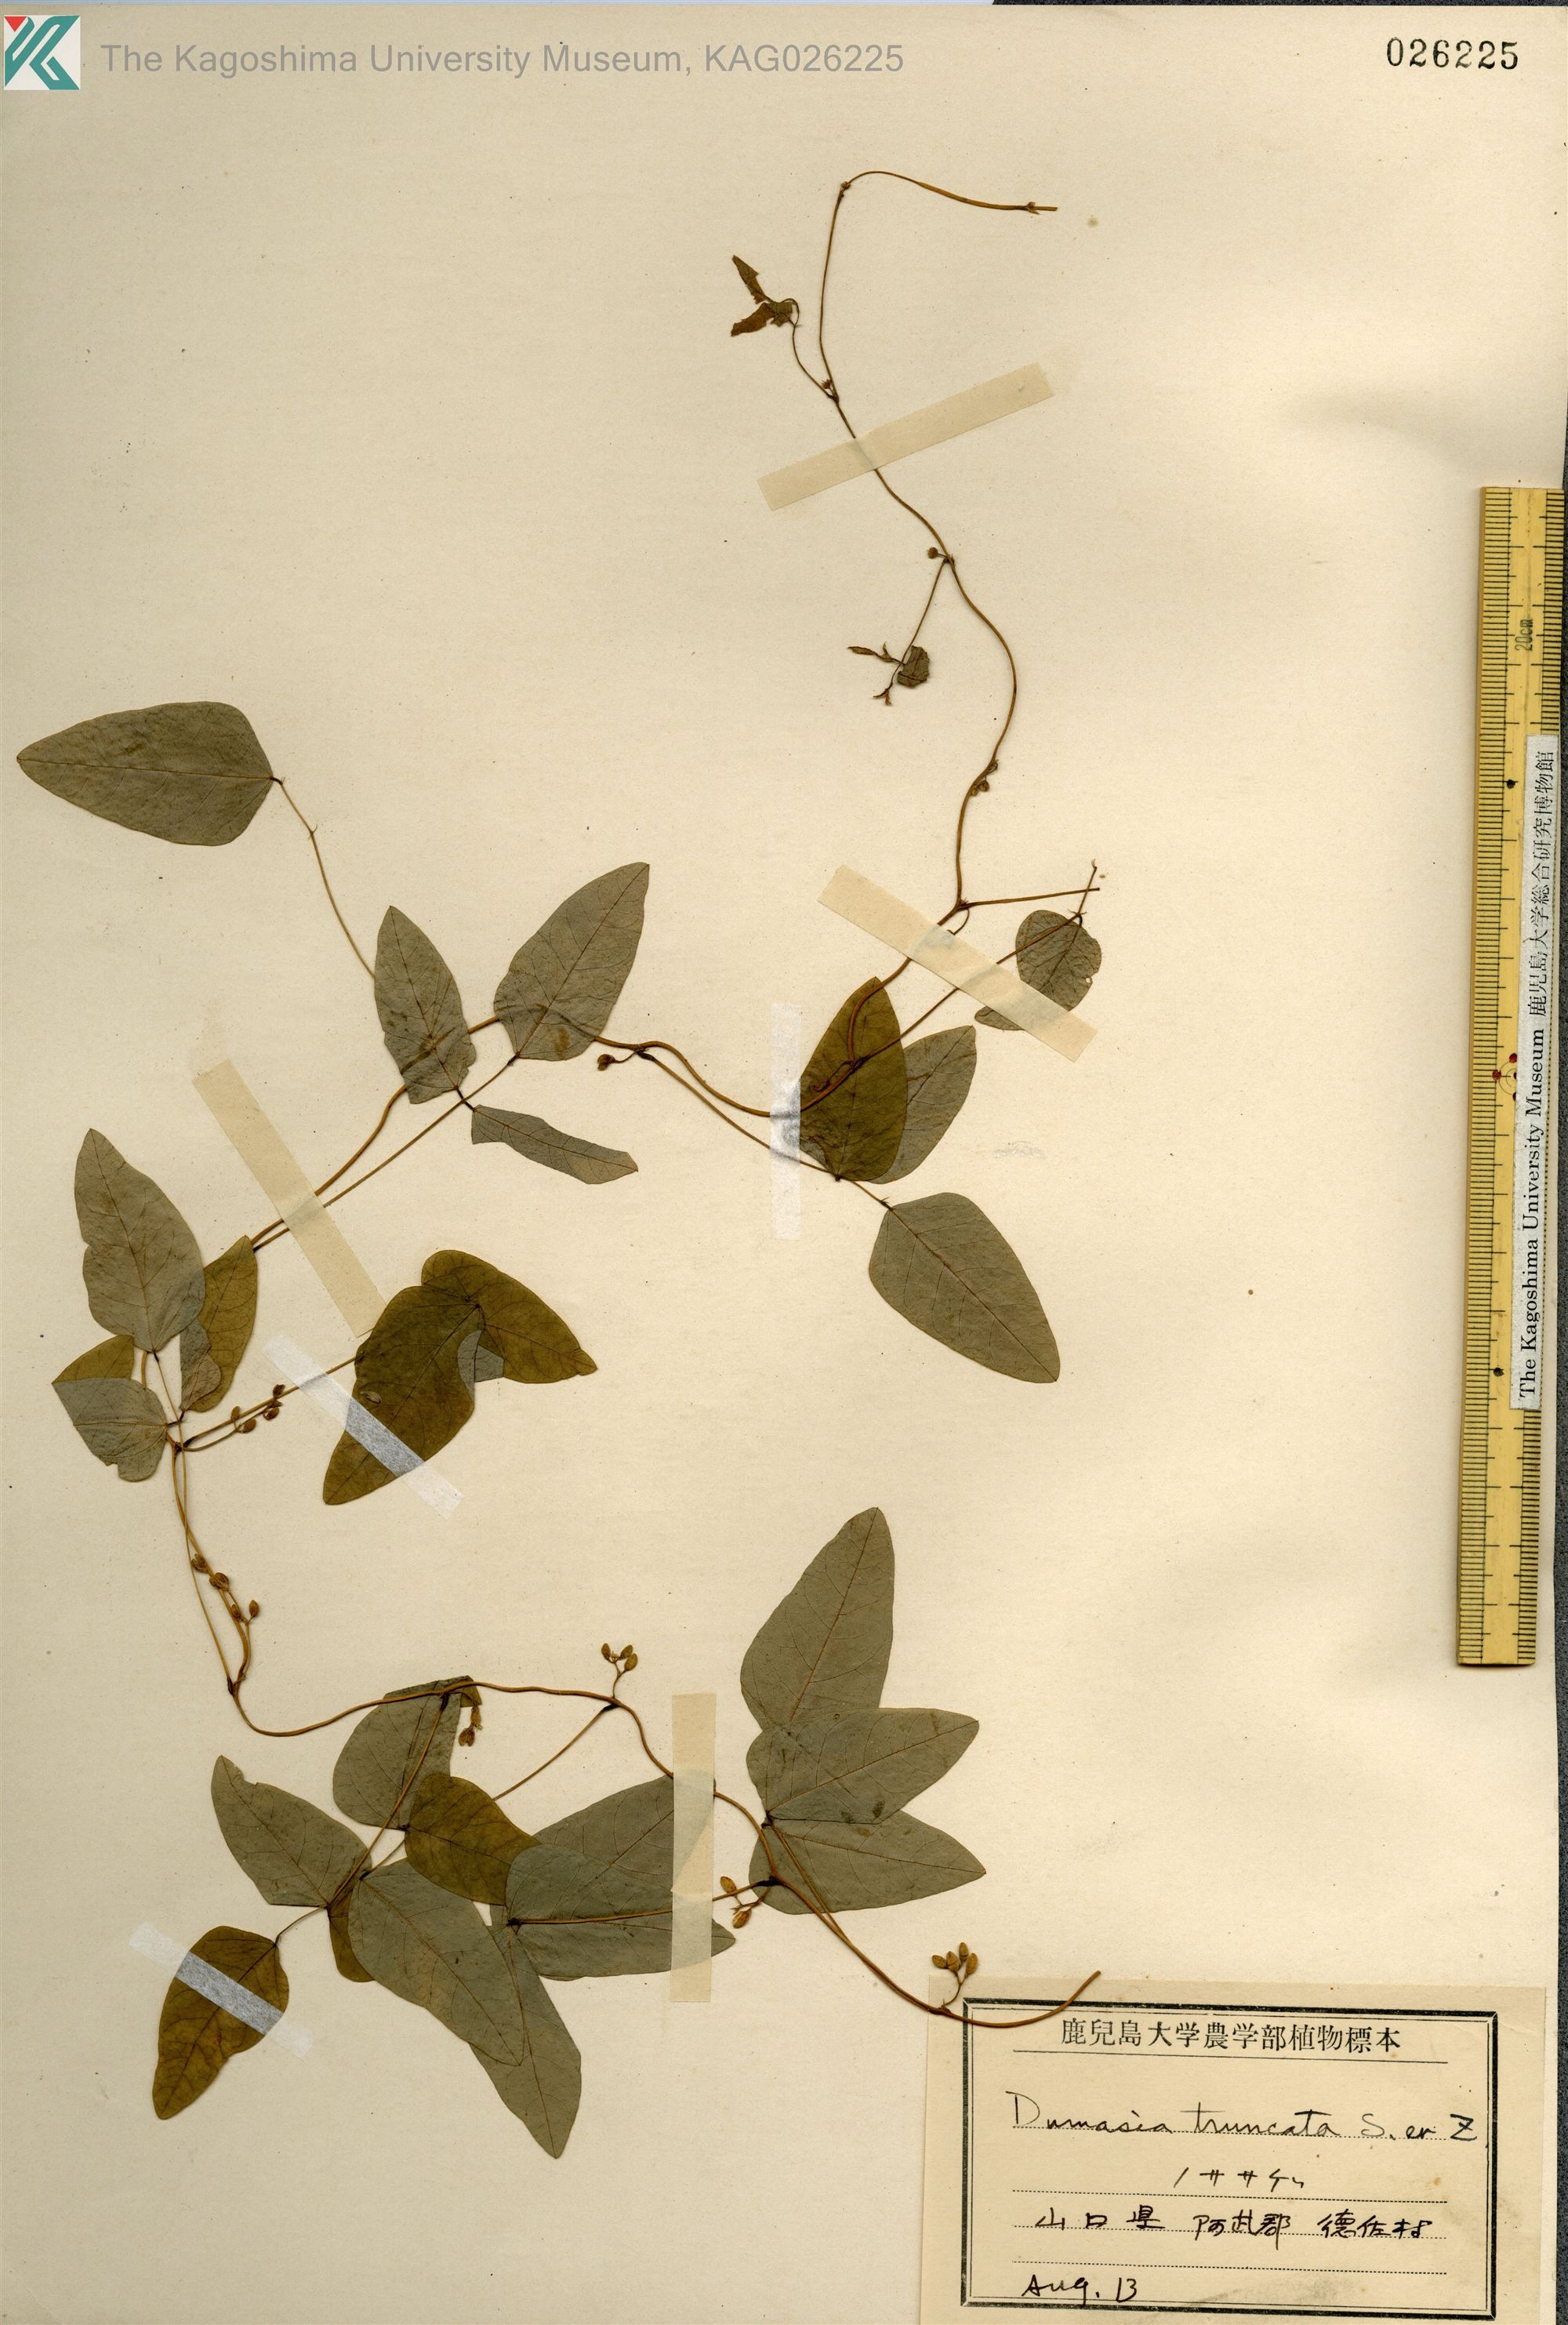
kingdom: Plantae
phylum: Tracheophyta
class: Magnoliopsida
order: Fabales
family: Fabaceae
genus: Dumasia
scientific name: Dumasia truncata
